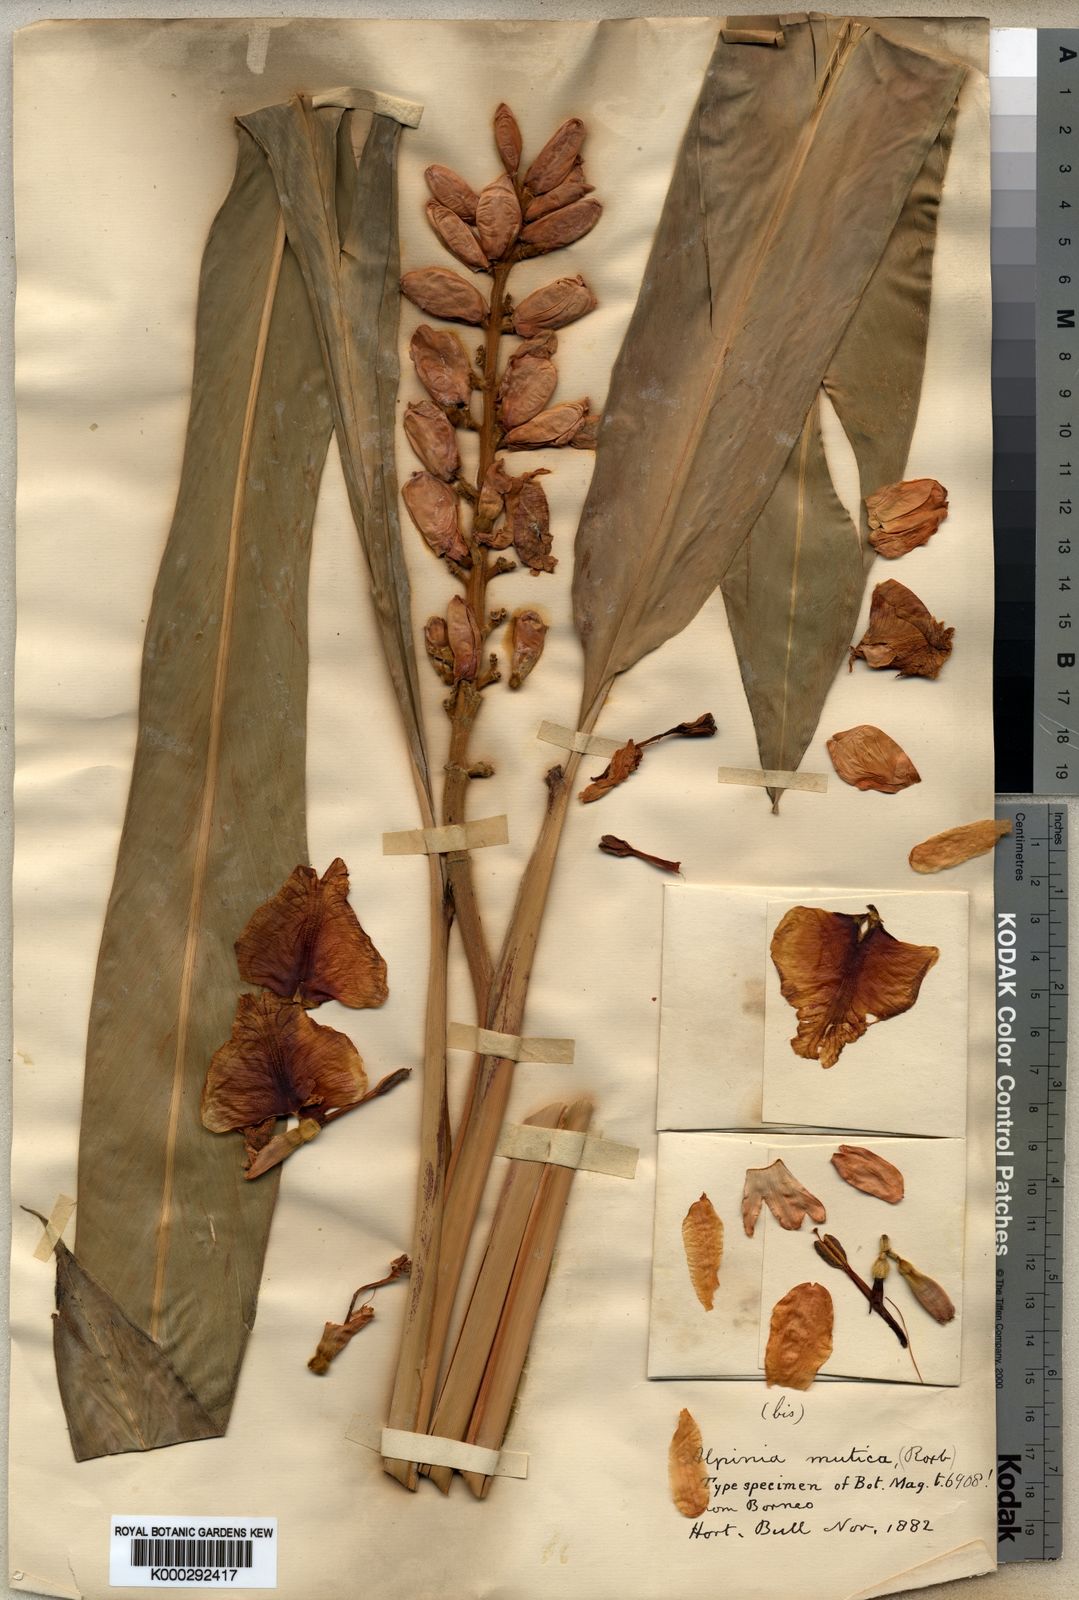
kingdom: Plantae
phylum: Tracheophyta
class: Liliopsida
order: Zingiberales
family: Zingiberaceae
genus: Alpinia
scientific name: Alpinia assimilis
